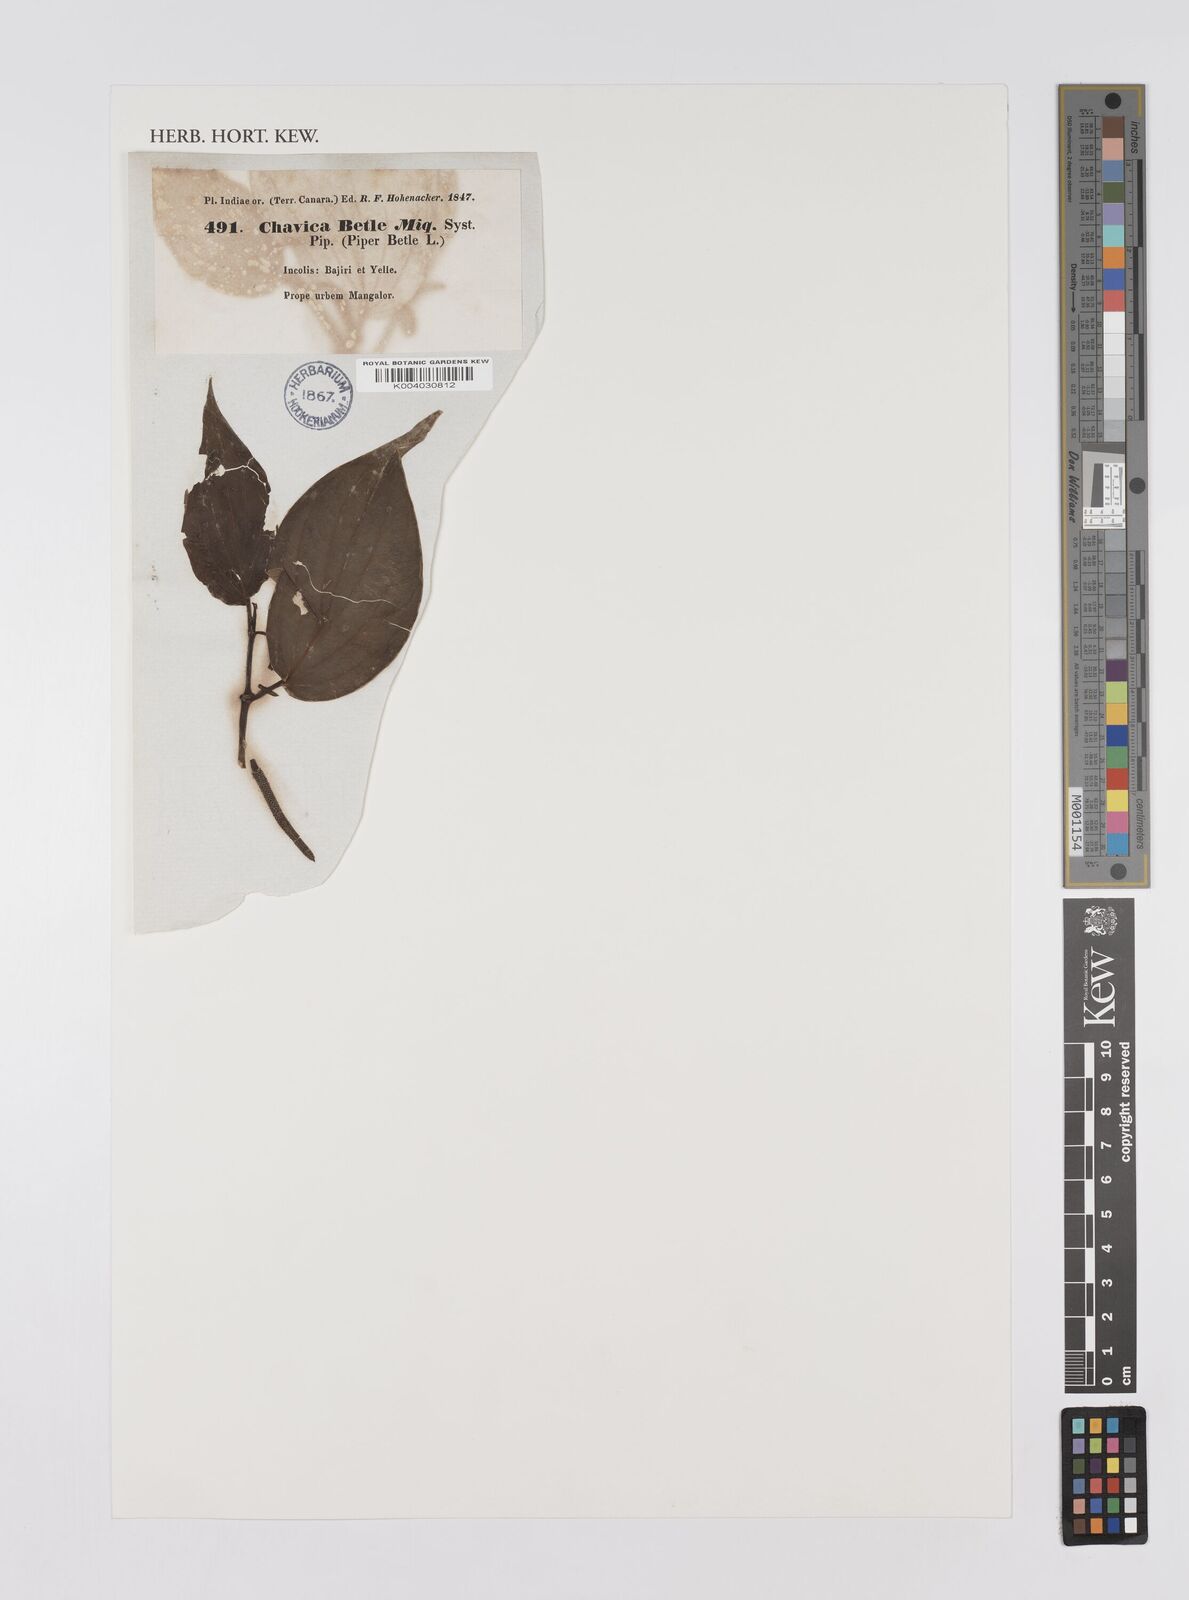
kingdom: Plantae
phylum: Tracheophyta
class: Magnoliopsida
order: Piperales
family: Piperaceae
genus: Piper
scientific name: Piper betle
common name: Betel pepper
